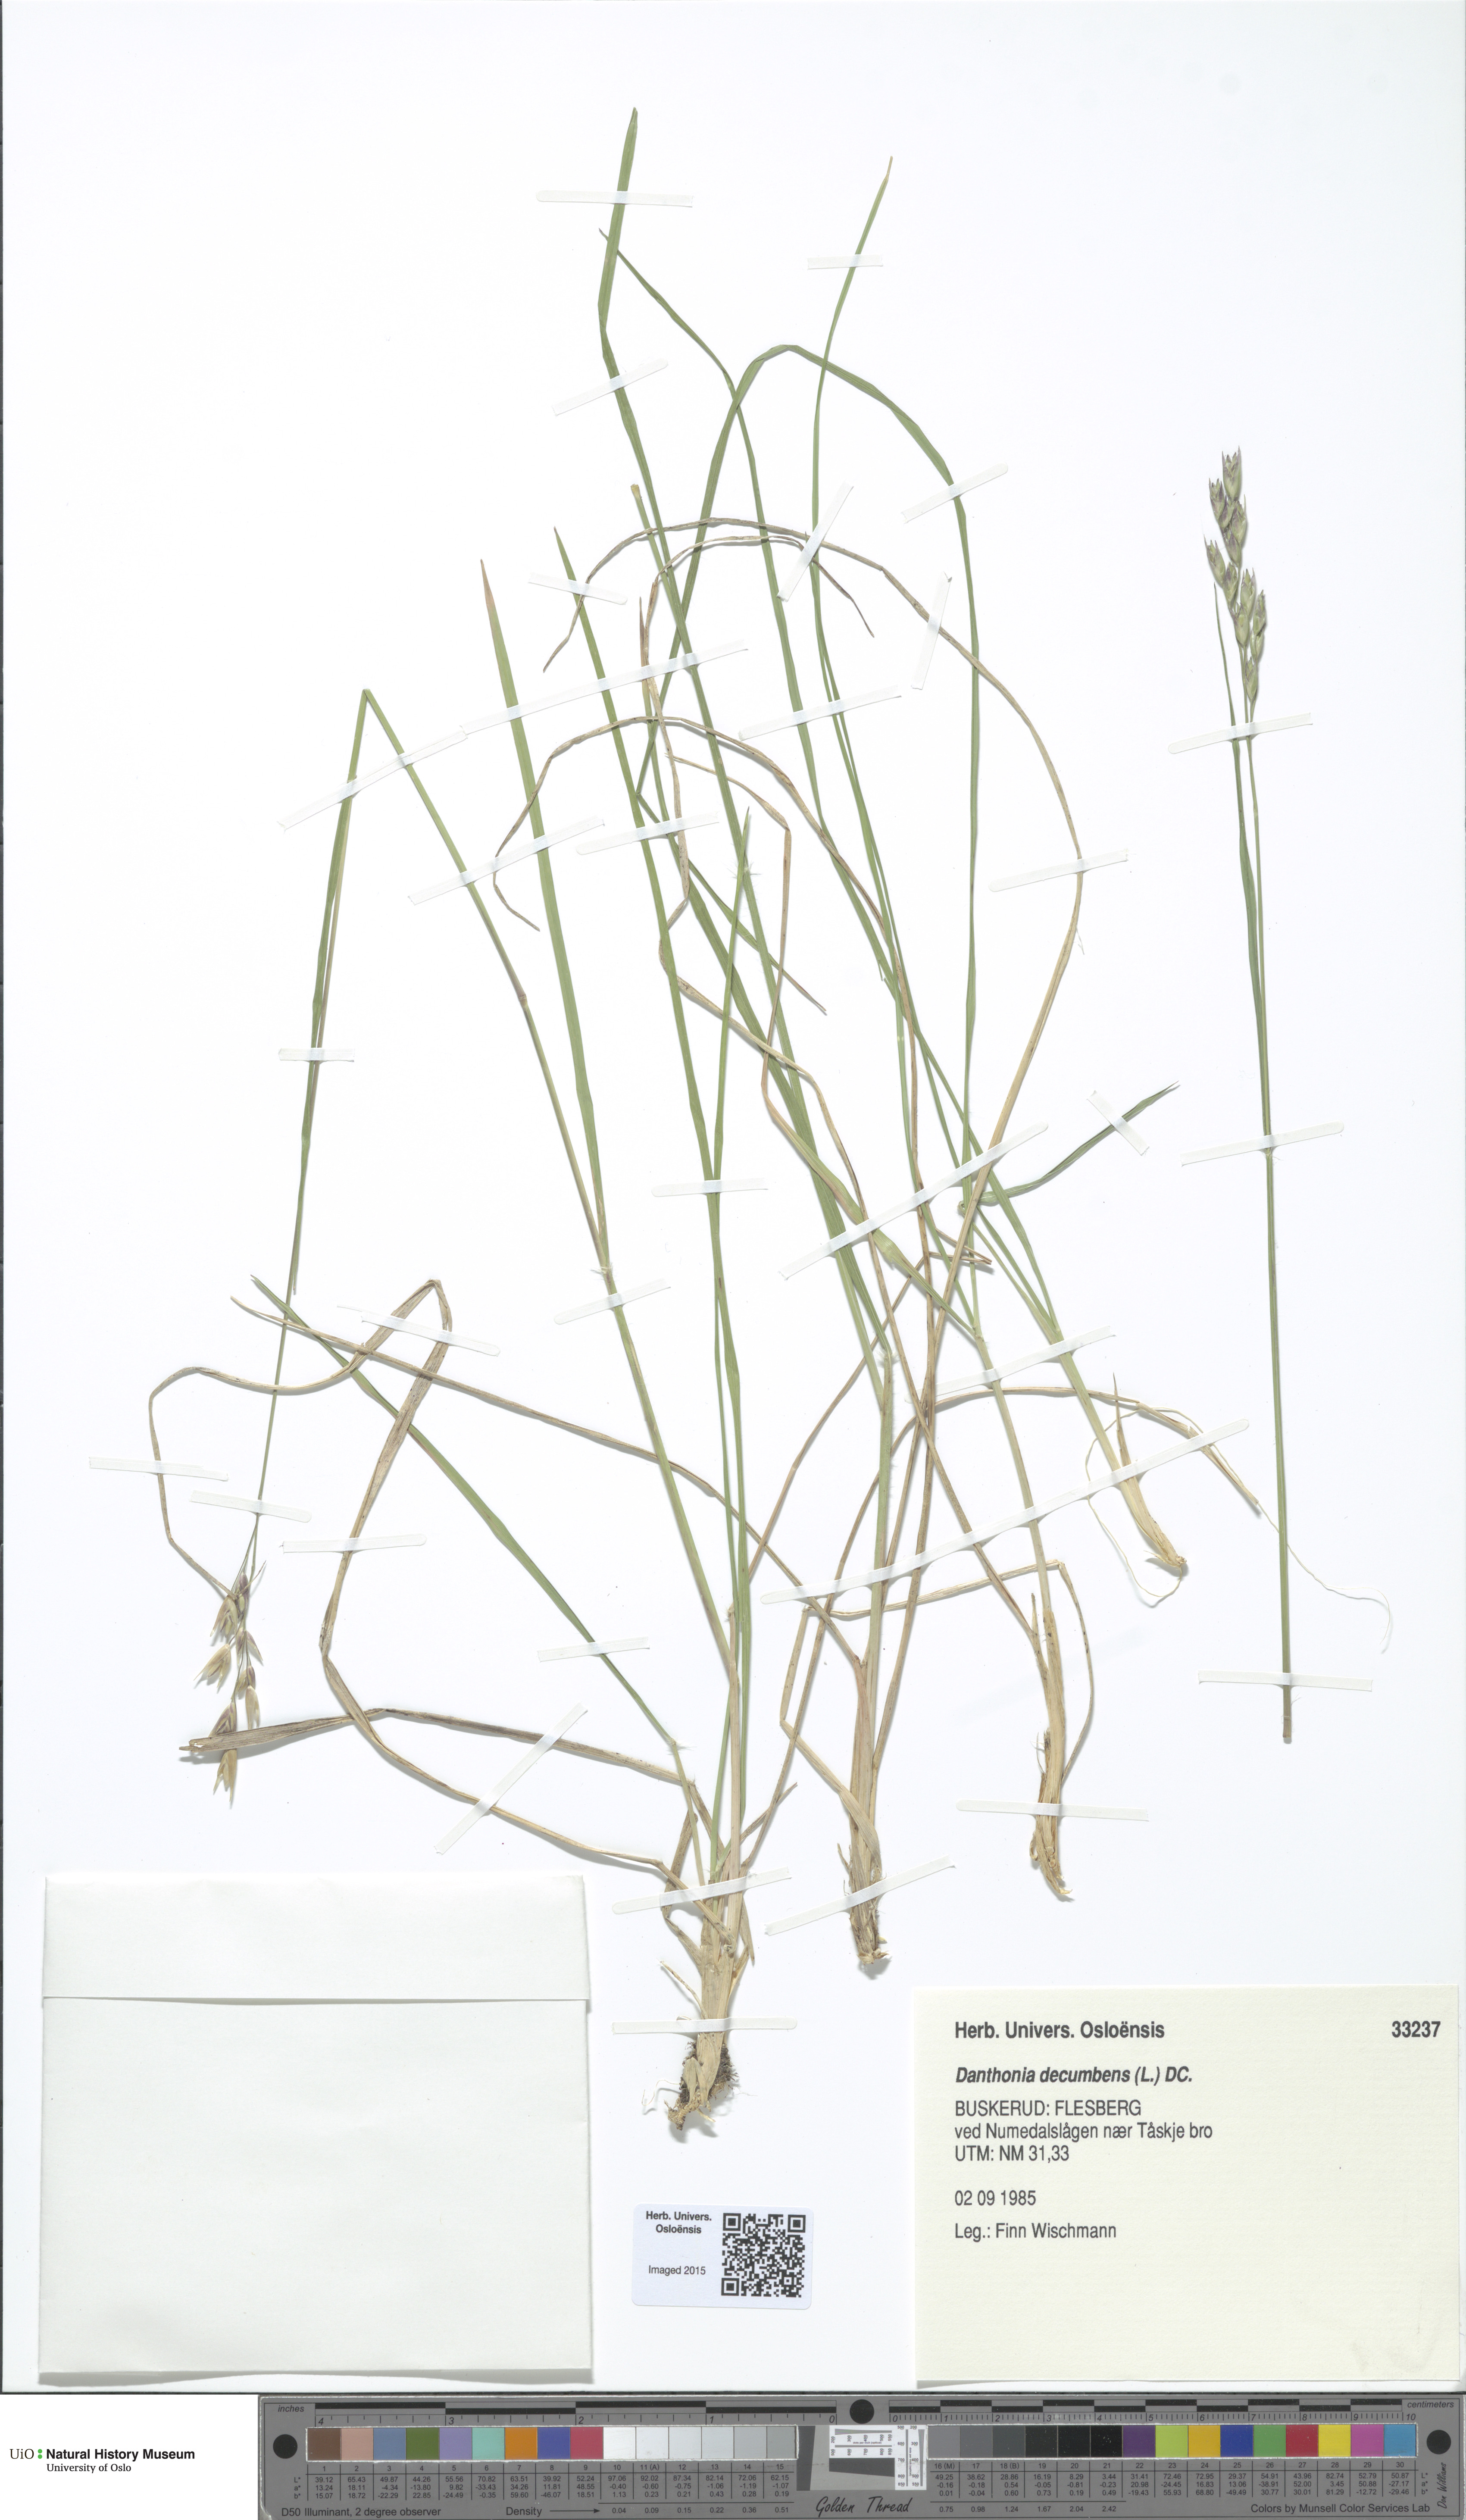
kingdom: Plantae
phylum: Tracheophyta
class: Liliopsida
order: Poales
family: Poaceae
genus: Danthonia
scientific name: Danthonia decumbens
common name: Common heathgrass
